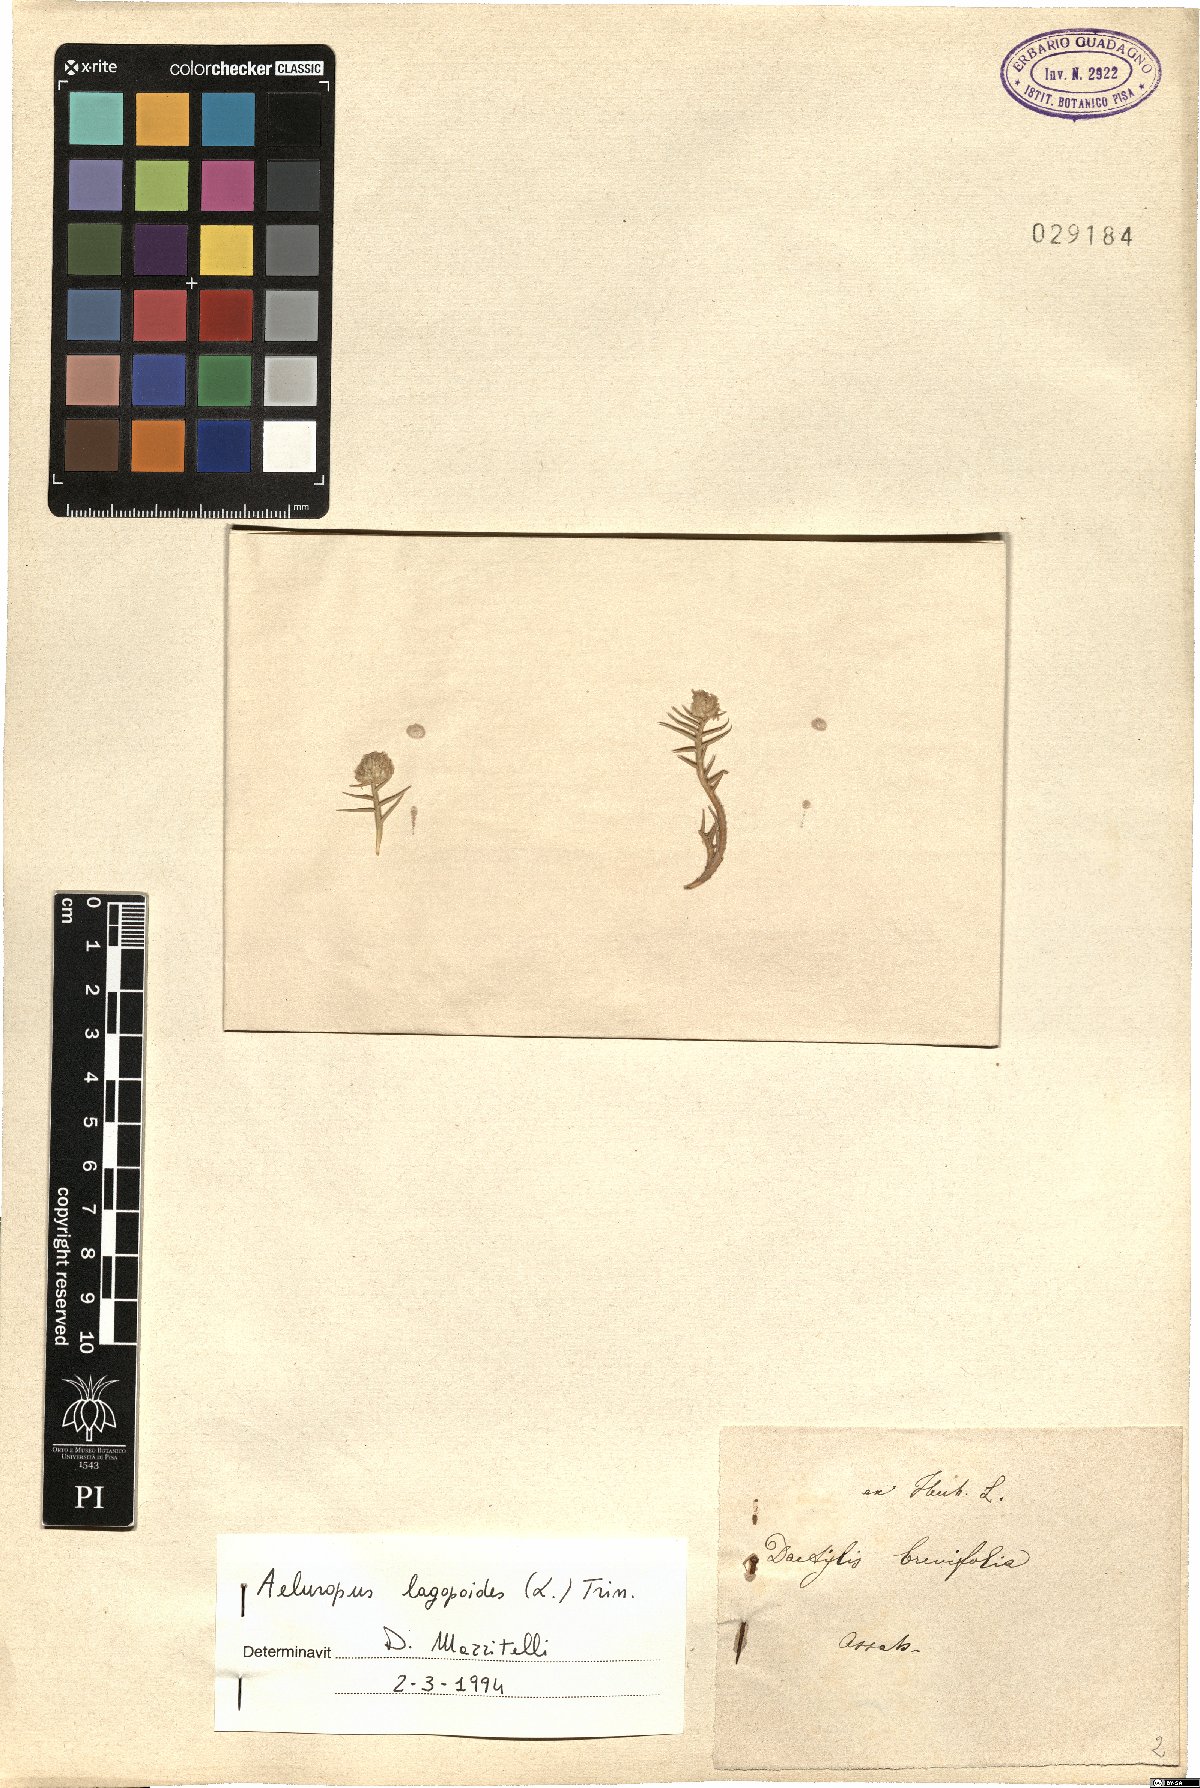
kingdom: Plantae
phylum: Tracheophyta
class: Liliopsida
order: Poales
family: Poaceae
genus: Aeluropus
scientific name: Aeluropus lagopoides
